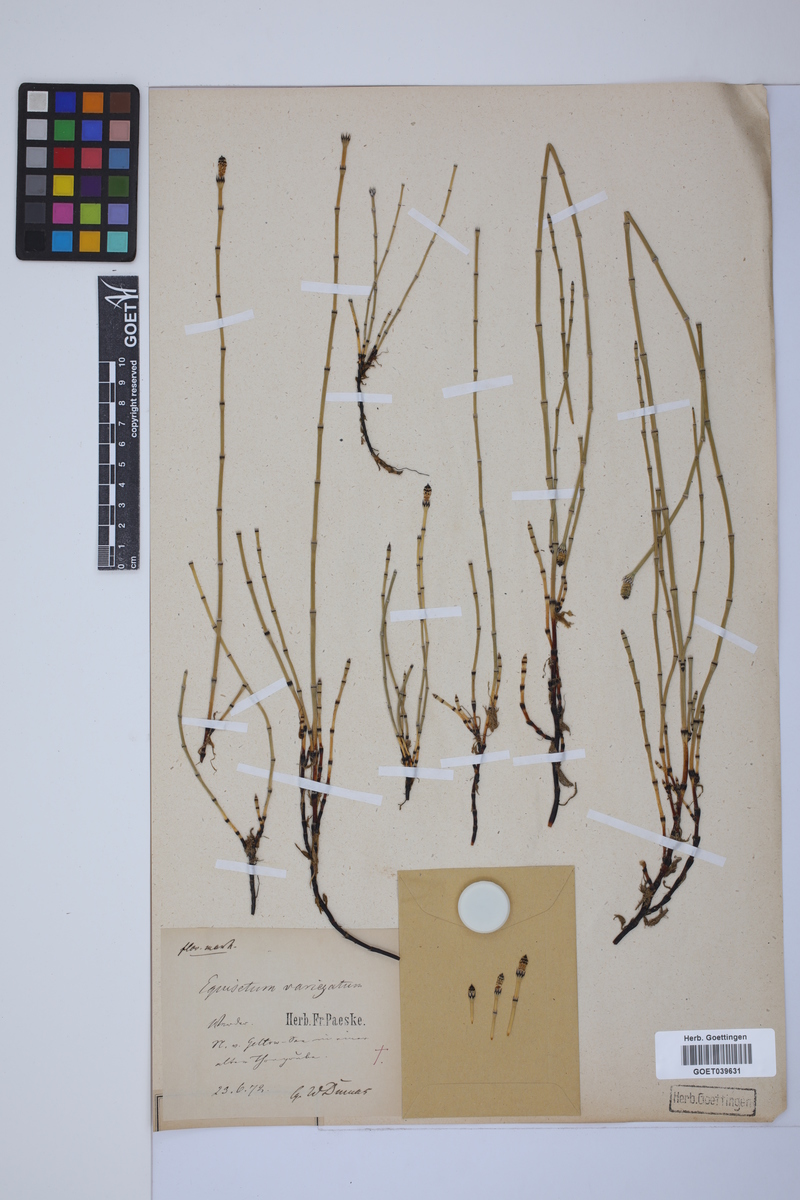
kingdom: Plantae
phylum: Tracheophyta
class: Polypodiopsida
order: Equisetales
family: Equisetaceae
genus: Equisetum
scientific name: Equisetum variegatum
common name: Variegated horsetail
